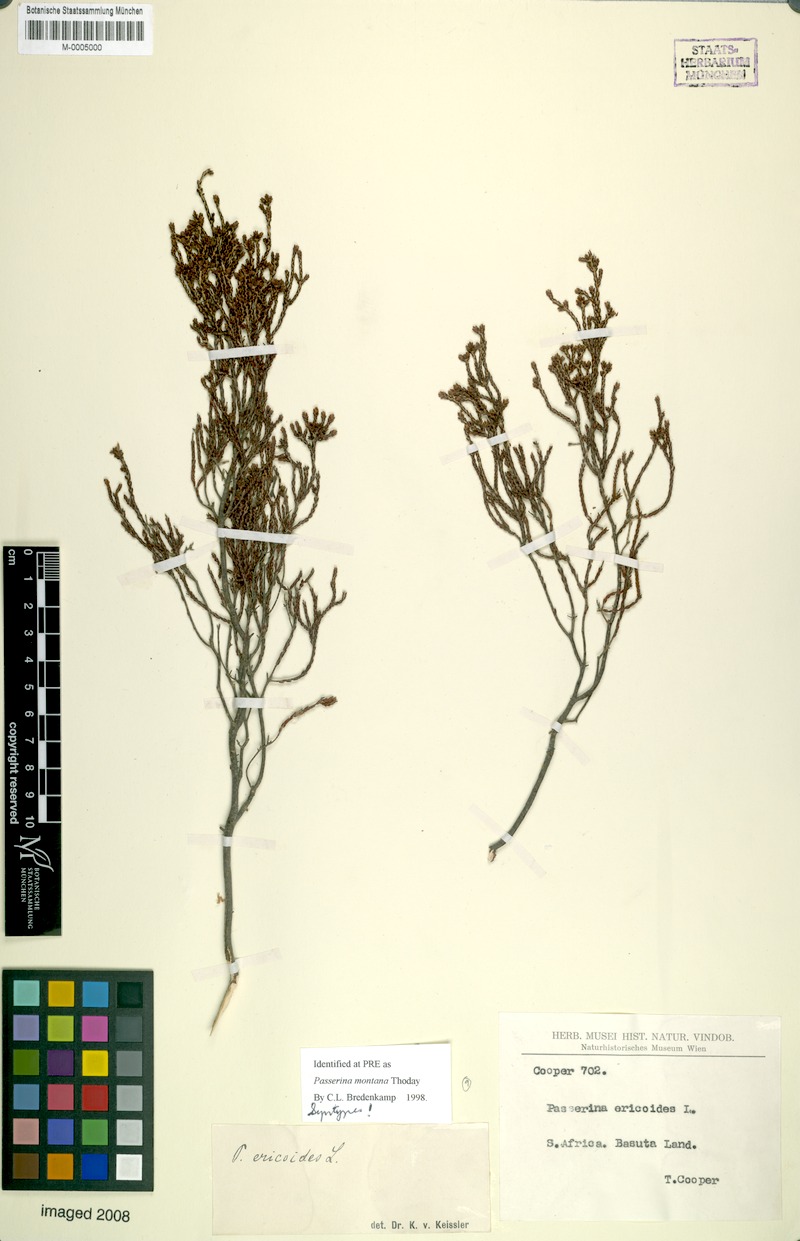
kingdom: Plantae
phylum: Tracheophyta
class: Magnoliopsida
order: Malvales
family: Thymelaeaceae
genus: Passerina
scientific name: Passerina montana
